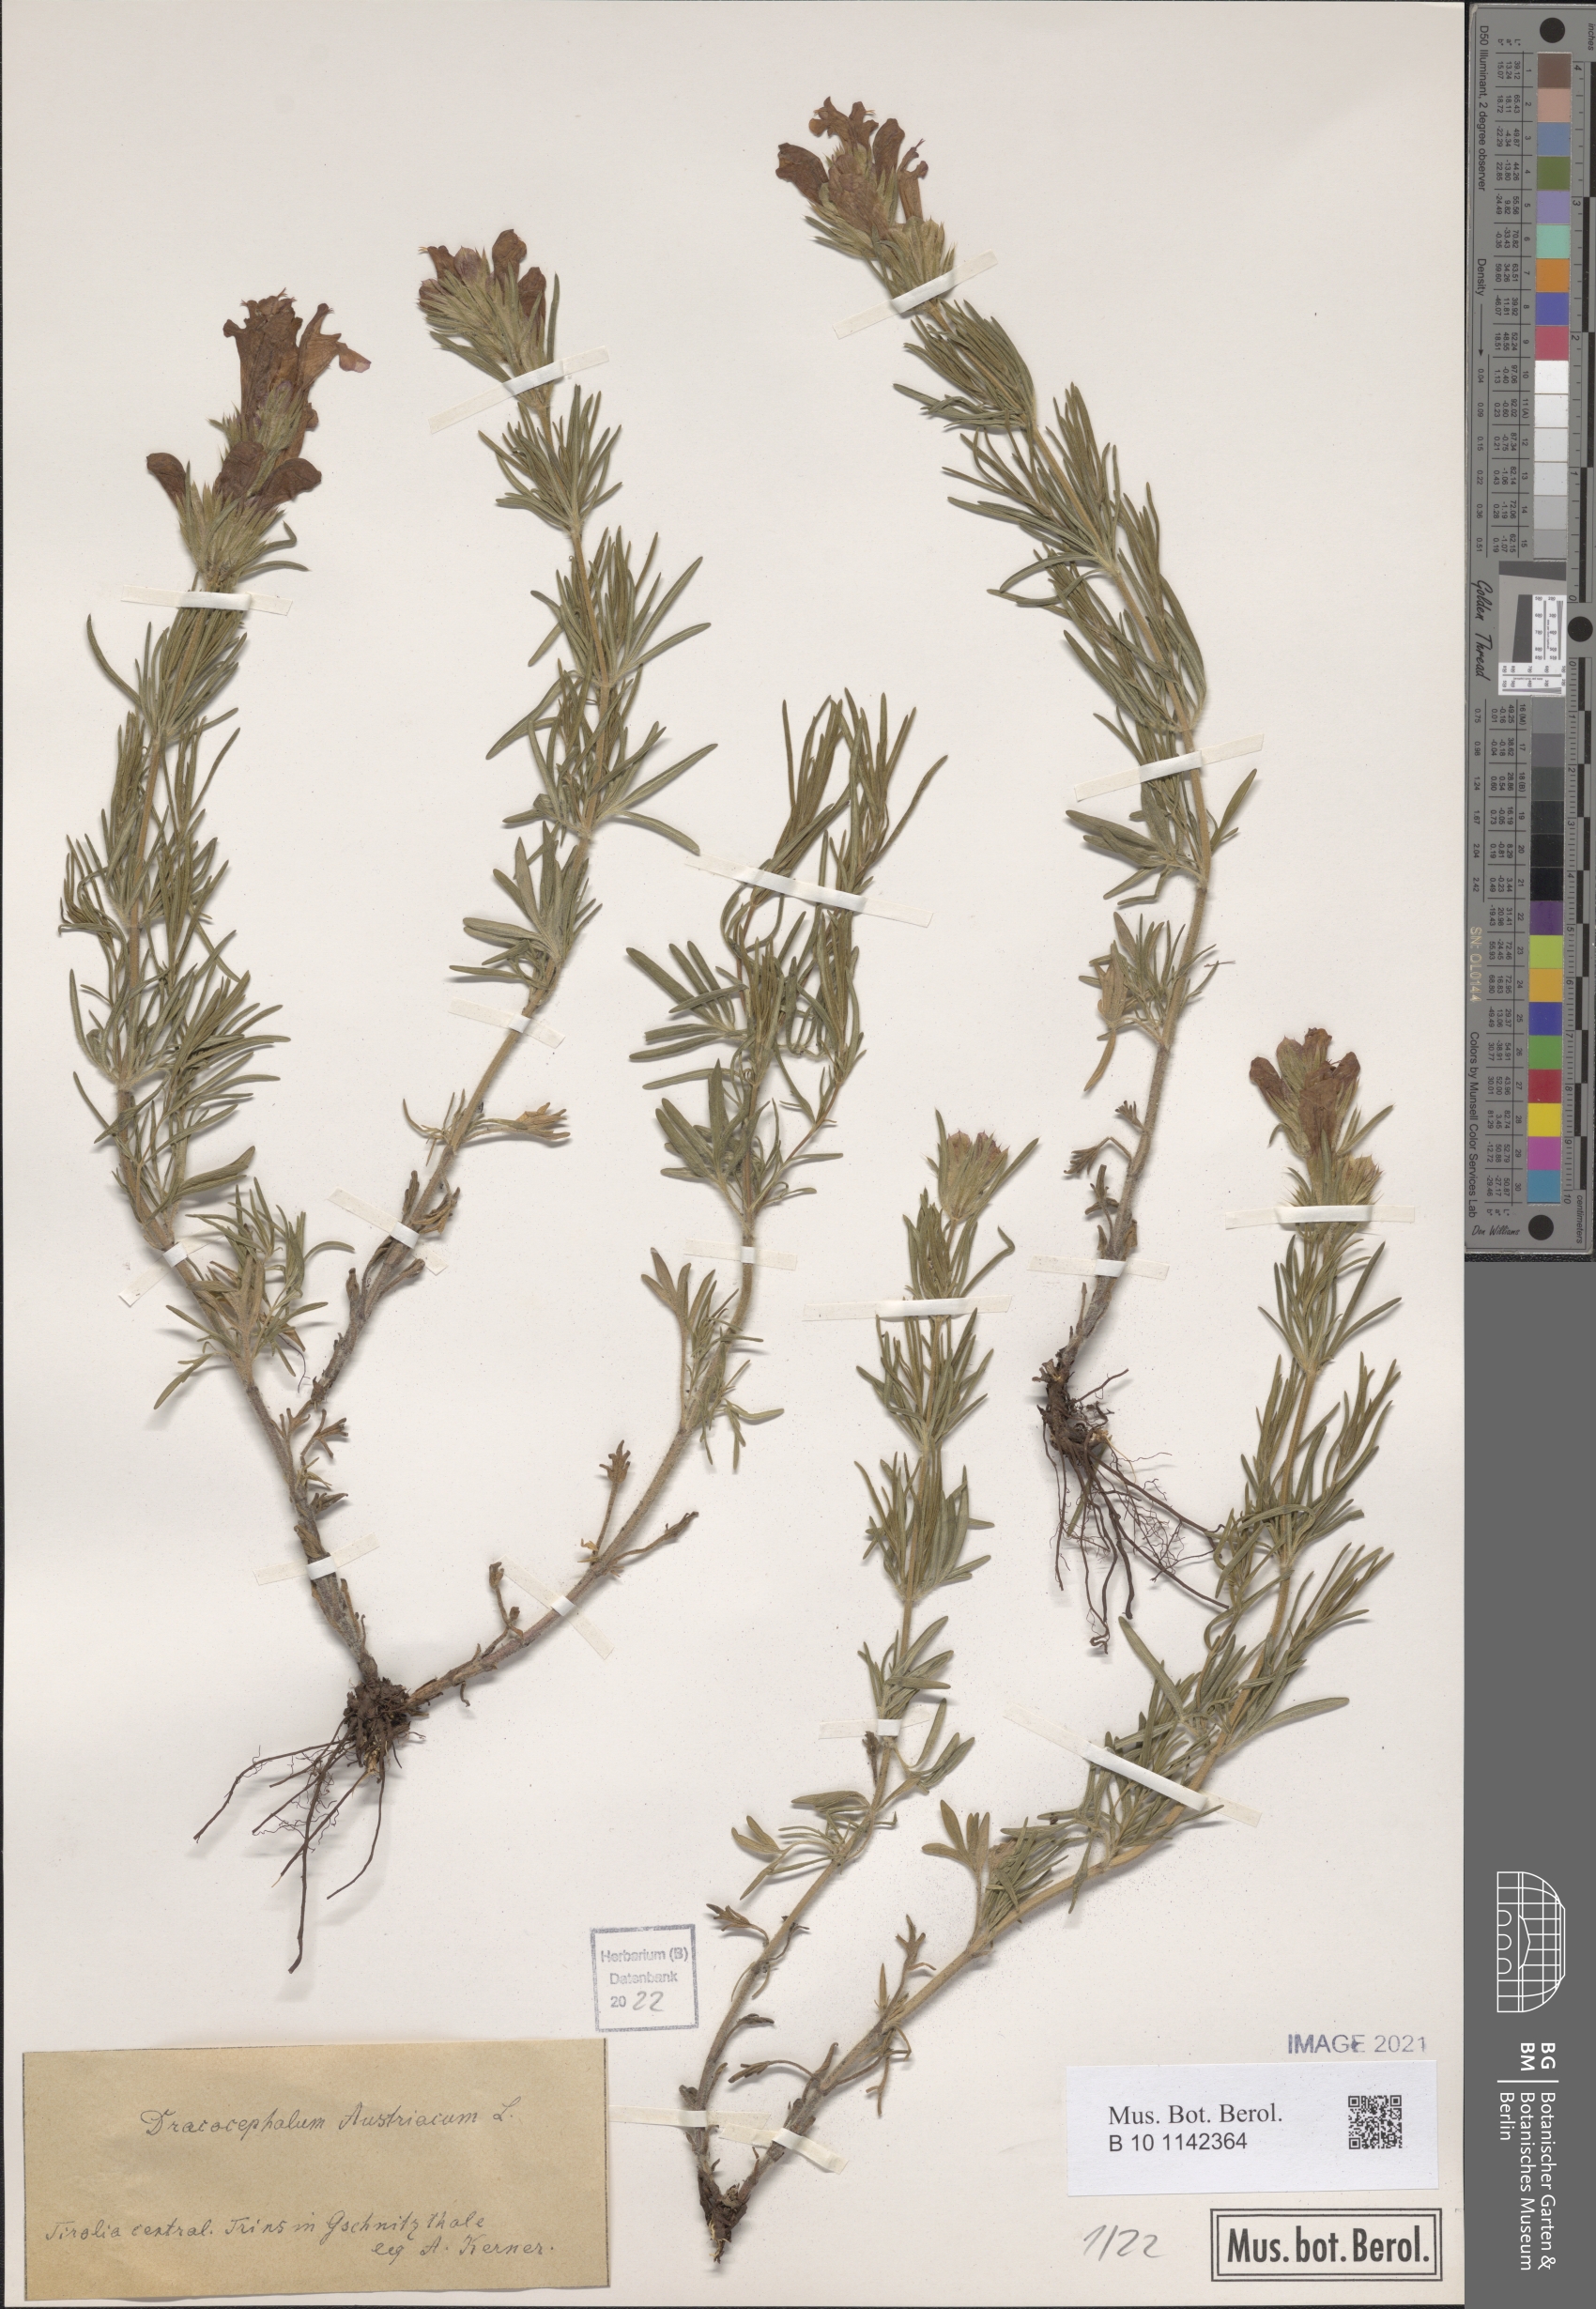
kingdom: Plantae
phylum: Tracheophyta
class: Magnoliopsida
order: Lamiales
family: Lamiaceae
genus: Dracocephalum
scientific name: Dracocephalum austriacum
